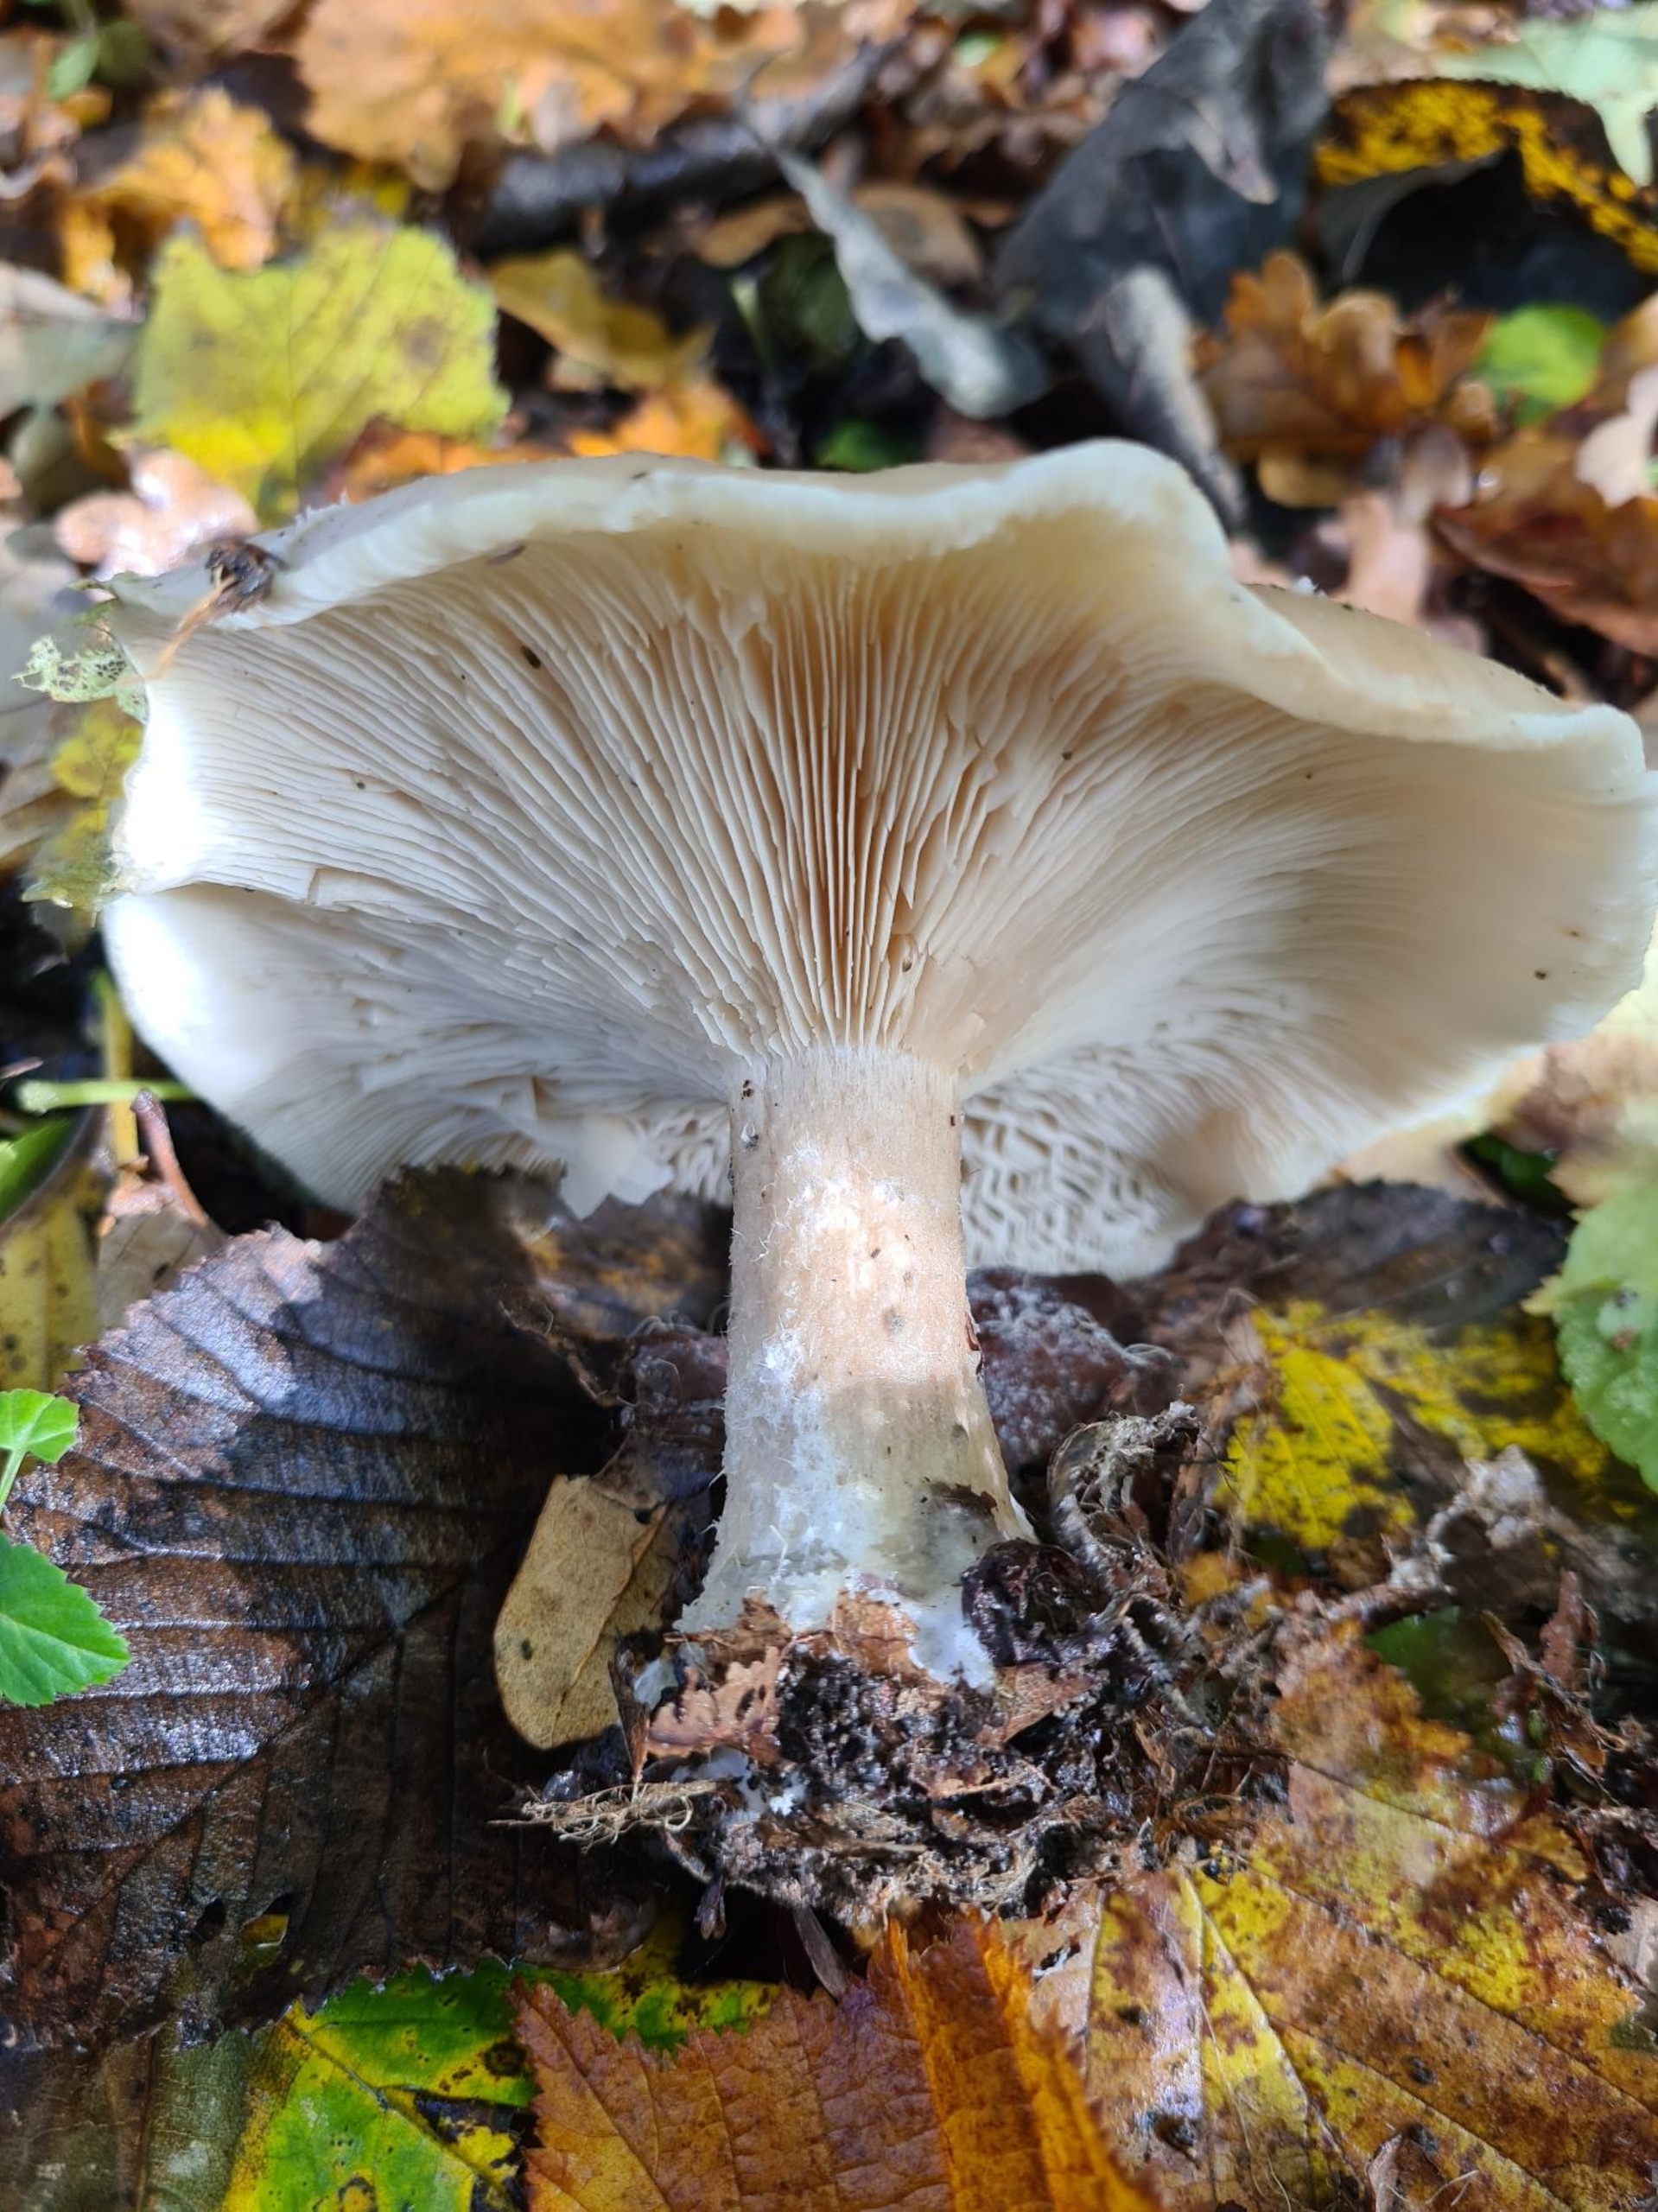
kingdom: Fungi
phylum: Basidiomycota
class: Agaricomycetes
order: Agaricales
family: Tricholomataceae
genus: Clitocybe
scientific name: Clitocybe nebularis
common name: Tåge-tragthat
